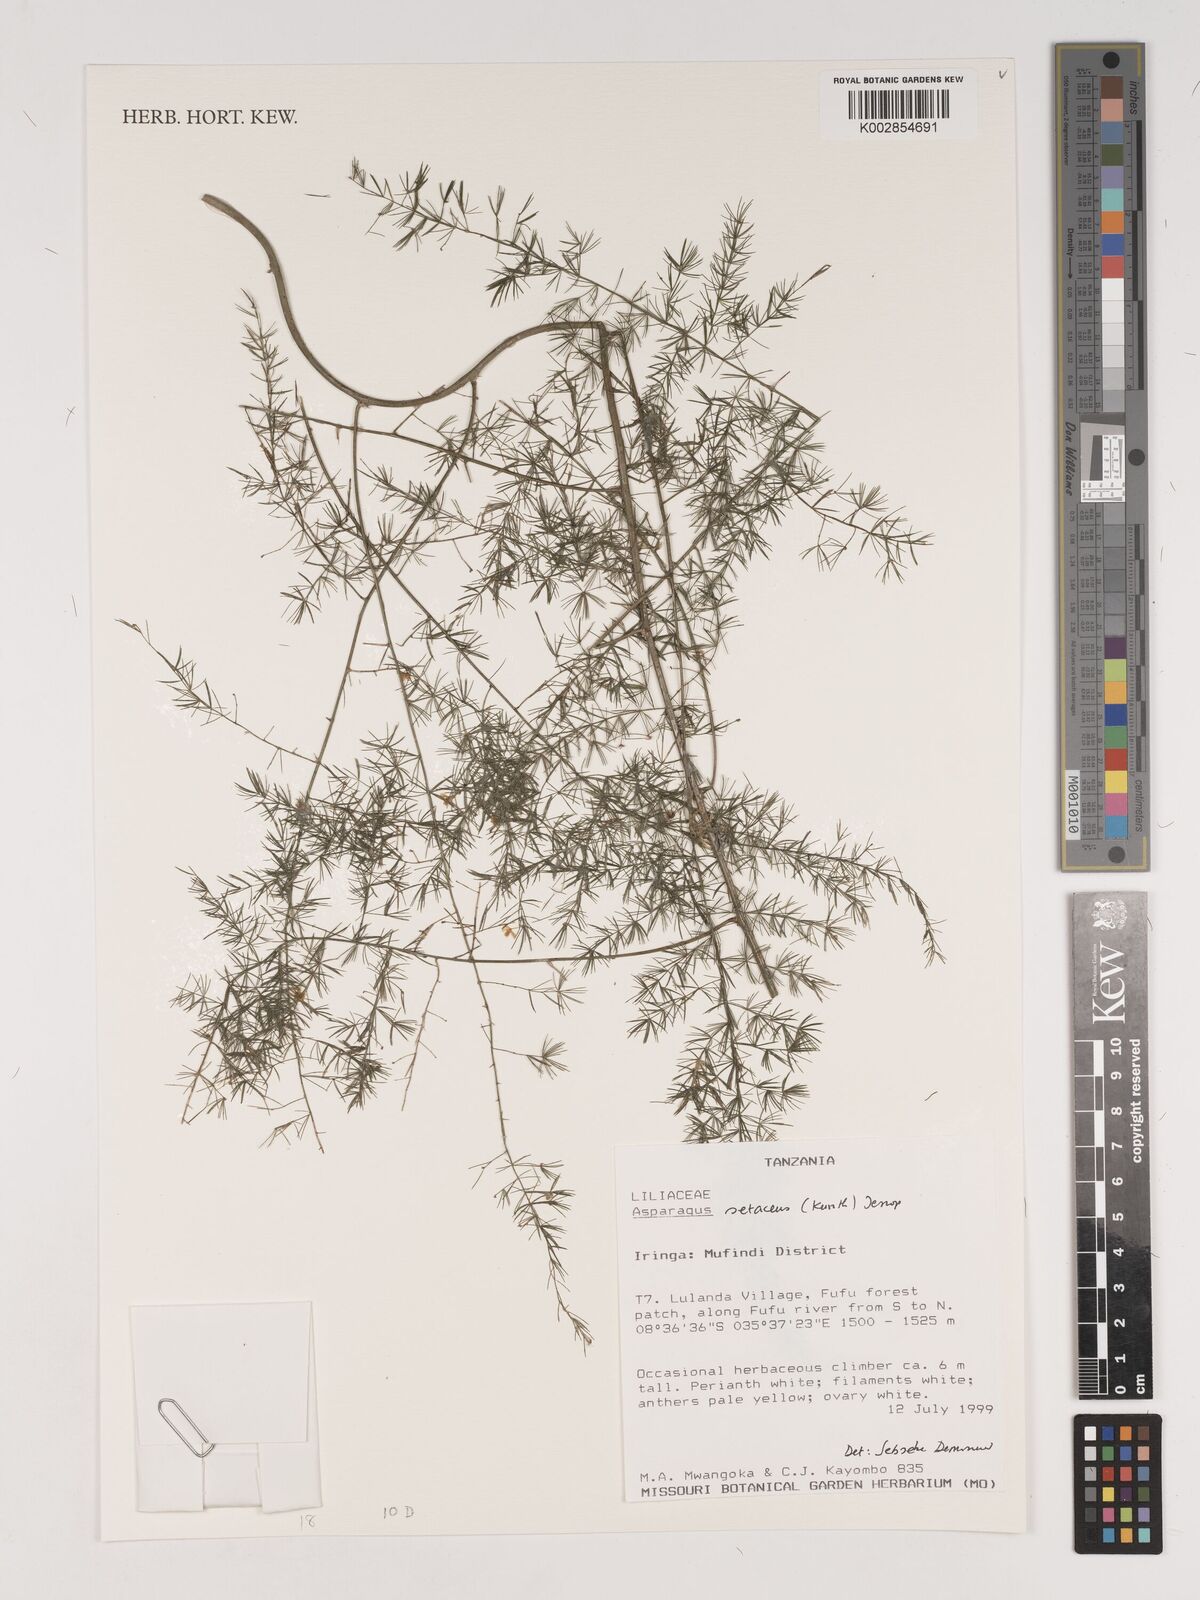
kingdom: Plantae
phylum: Tracheophyta
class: Liliopsida
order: Asparagales
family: Asparagaceae
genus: Asparagus
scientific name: Asparagus setaceus
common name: Common asparagus fern
